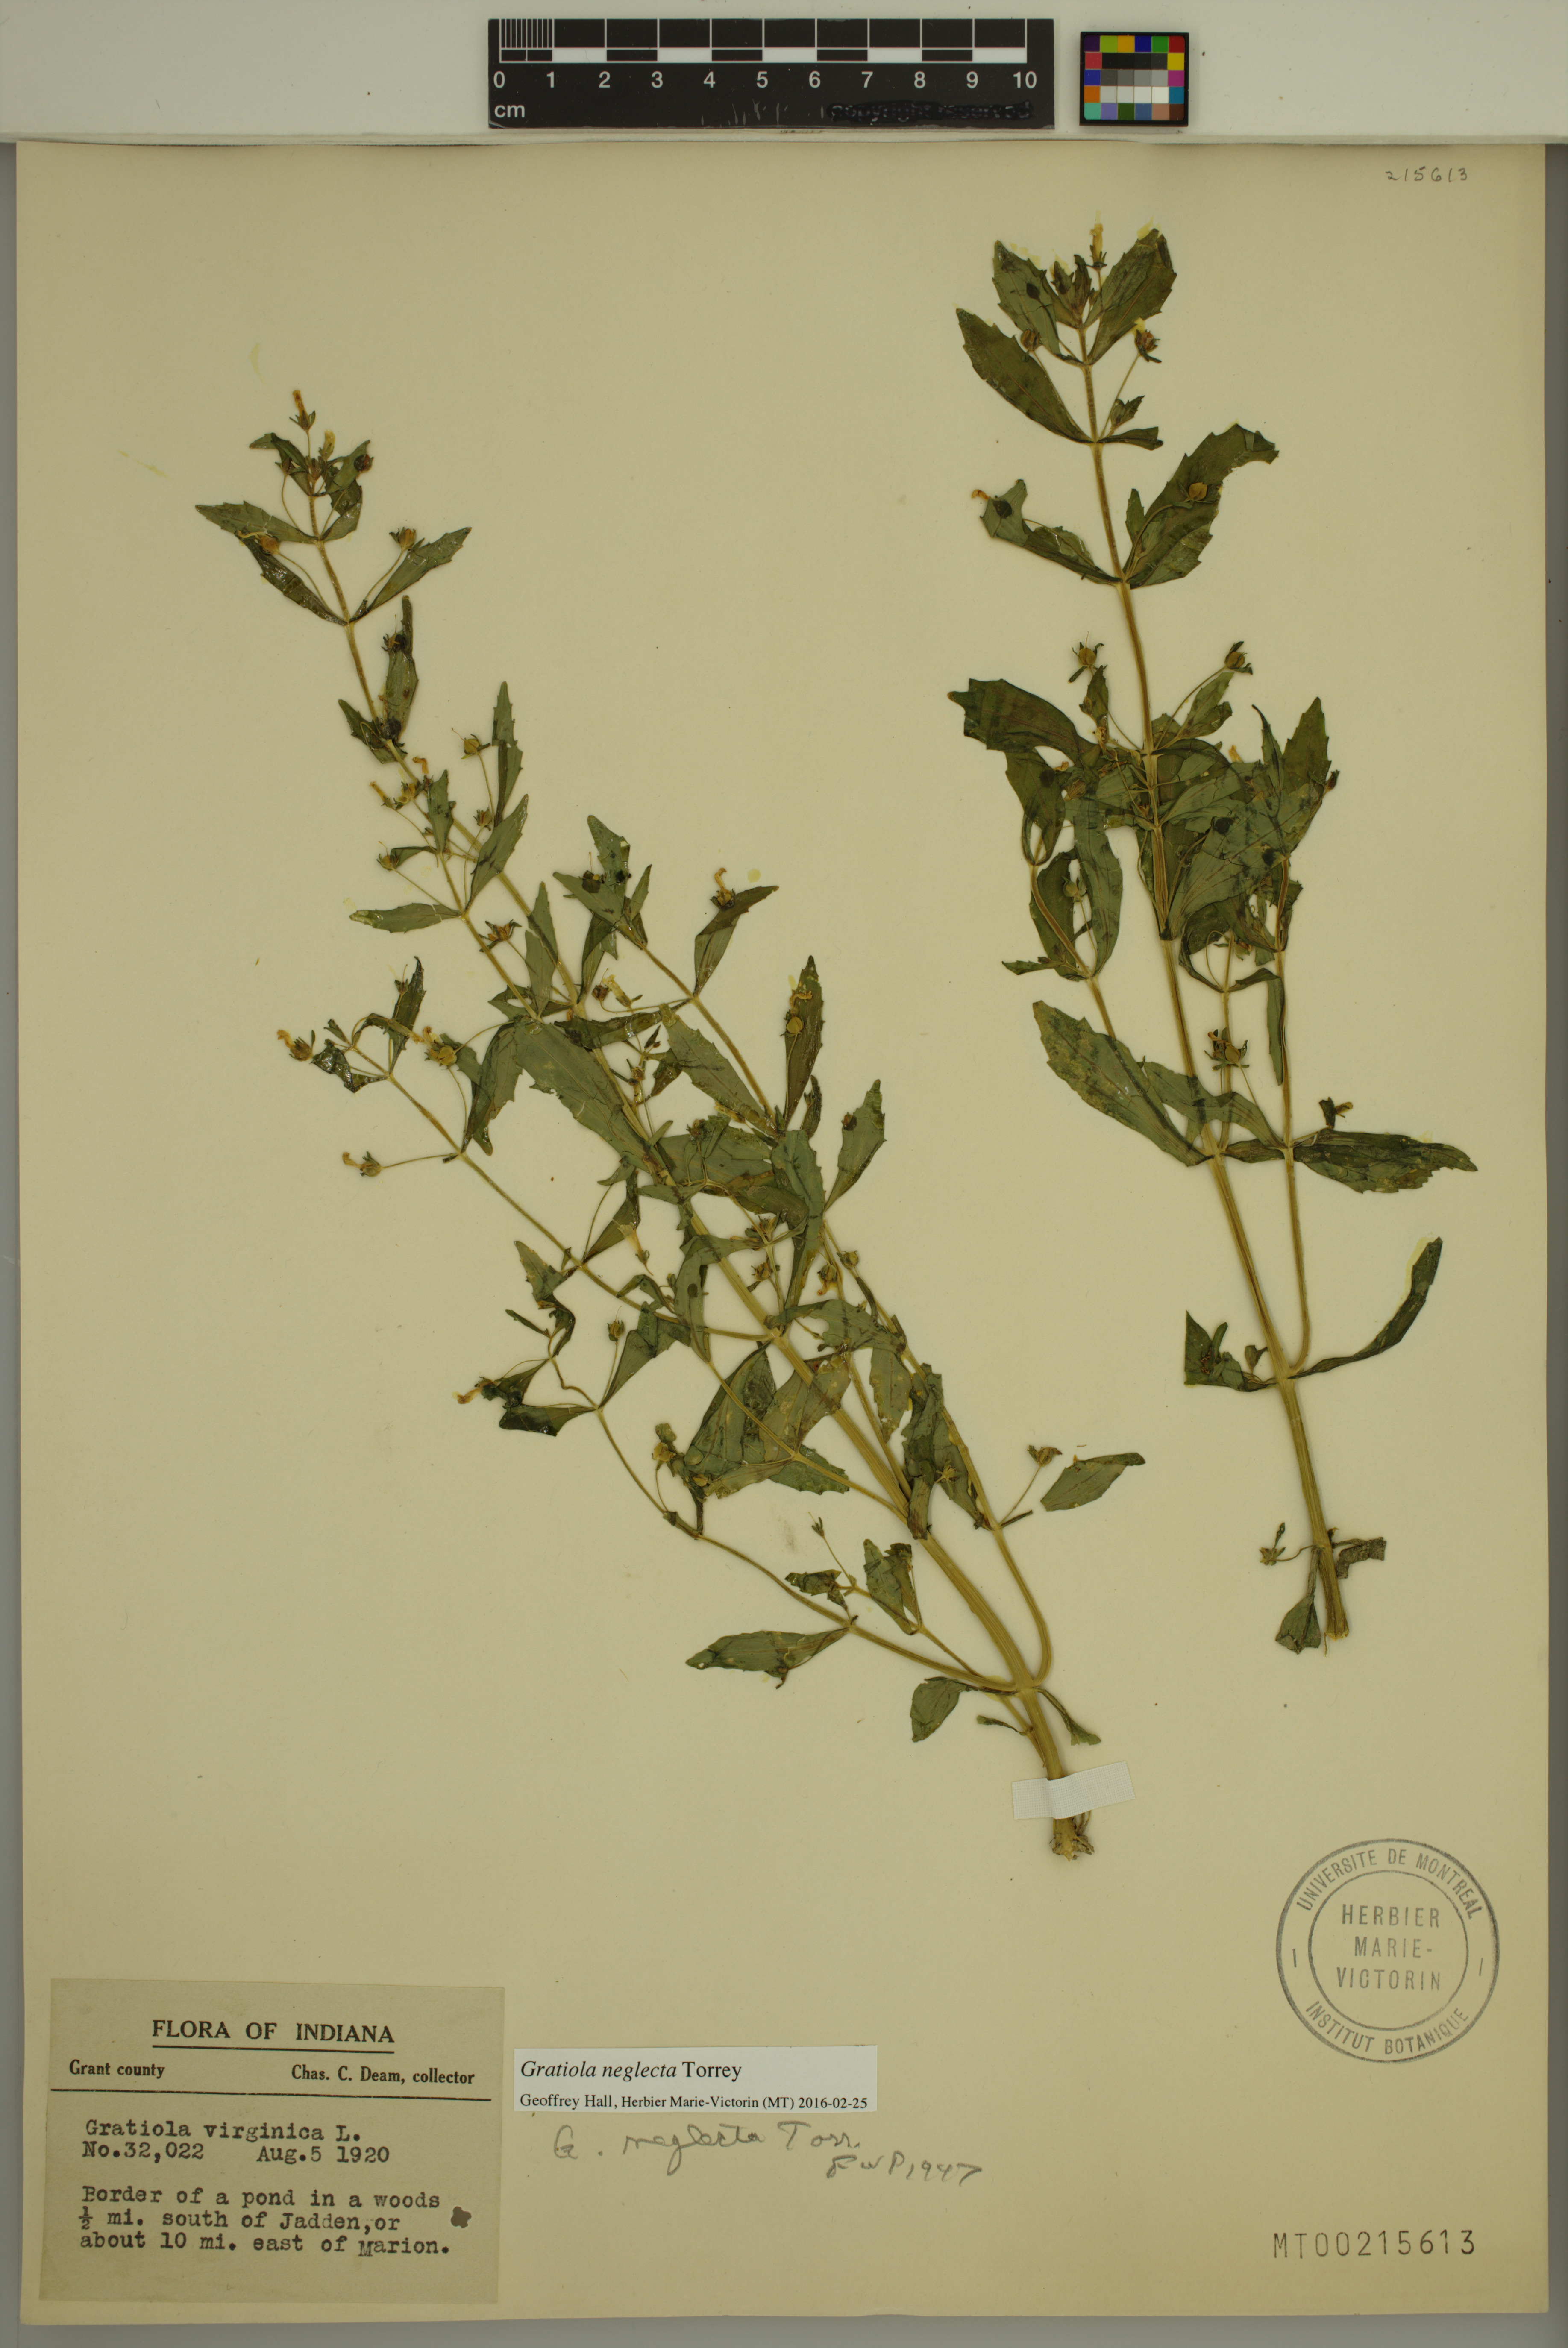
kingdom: Plantae
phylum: Tracheophyta
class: Magnoliopsida
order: Lamiales
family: Plantaginaceae
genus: Gratiola
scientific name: Gratiola neglecta
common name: American hedge-hyssop
